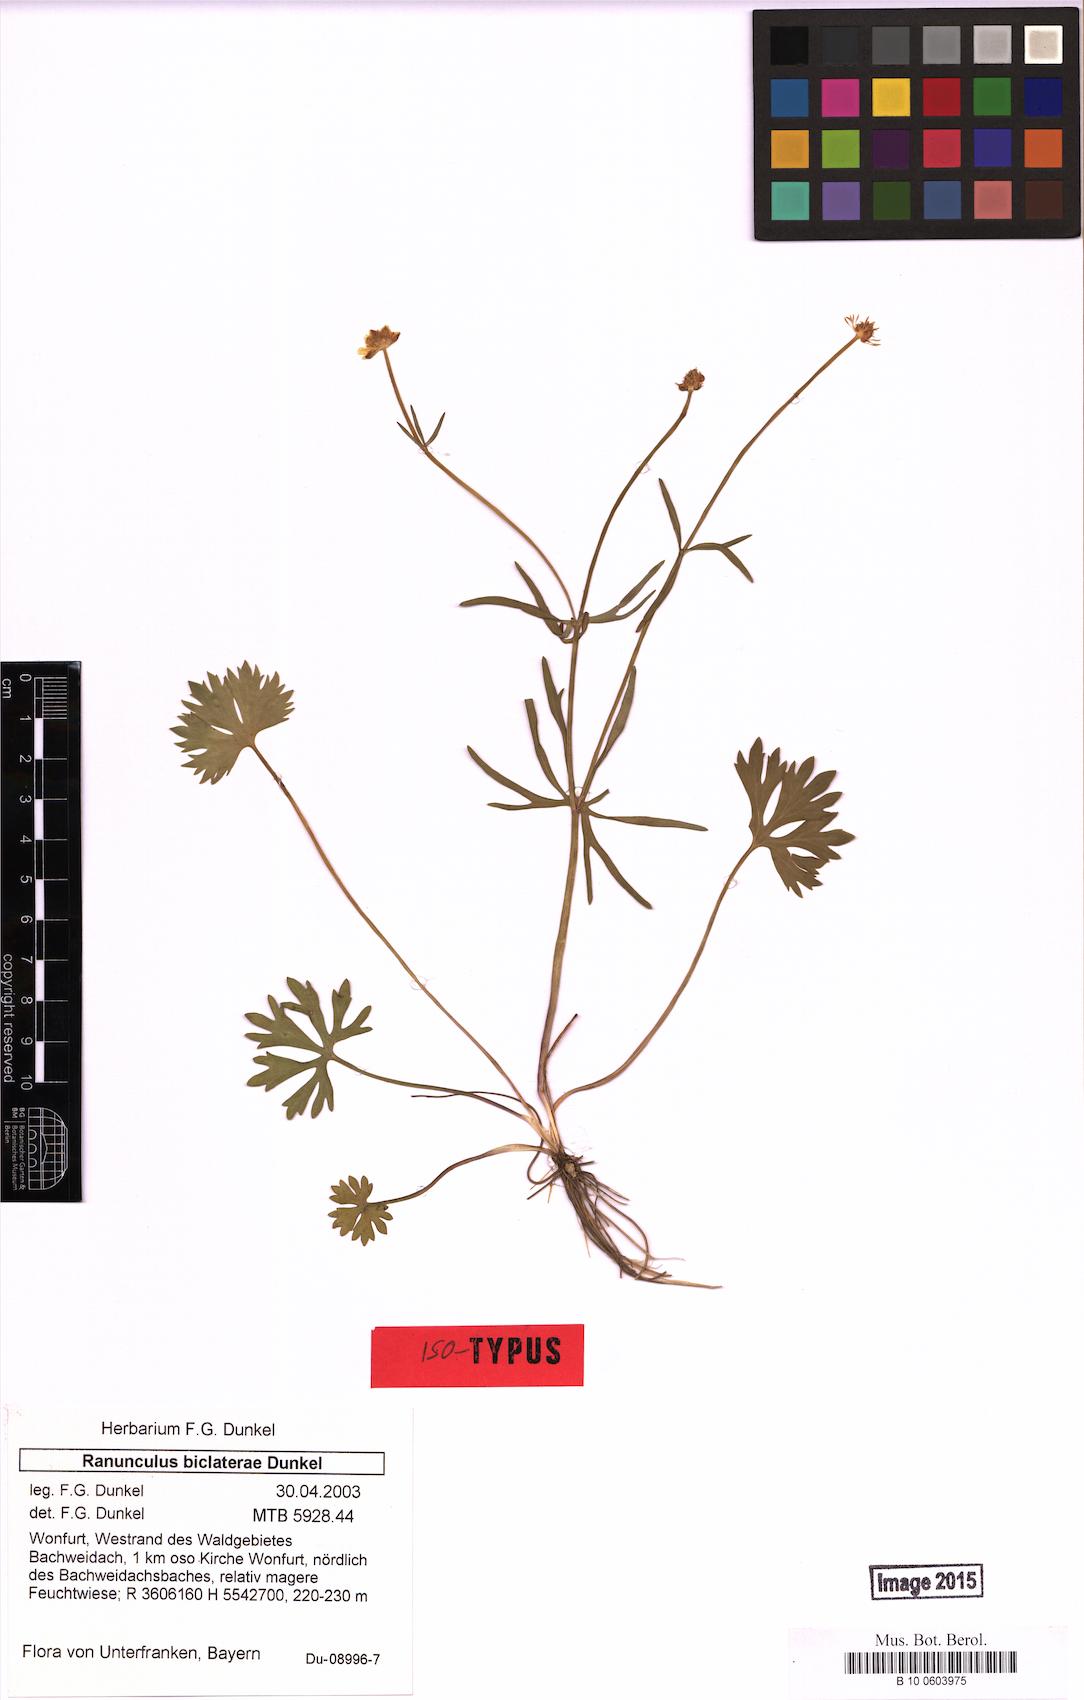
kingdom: Plantae
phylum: Tracheophyta
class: Magnoliopsida
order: Ranunculales
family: Ranunculaceae
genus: Ranunculus
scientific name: Ranunculus biclaterae
